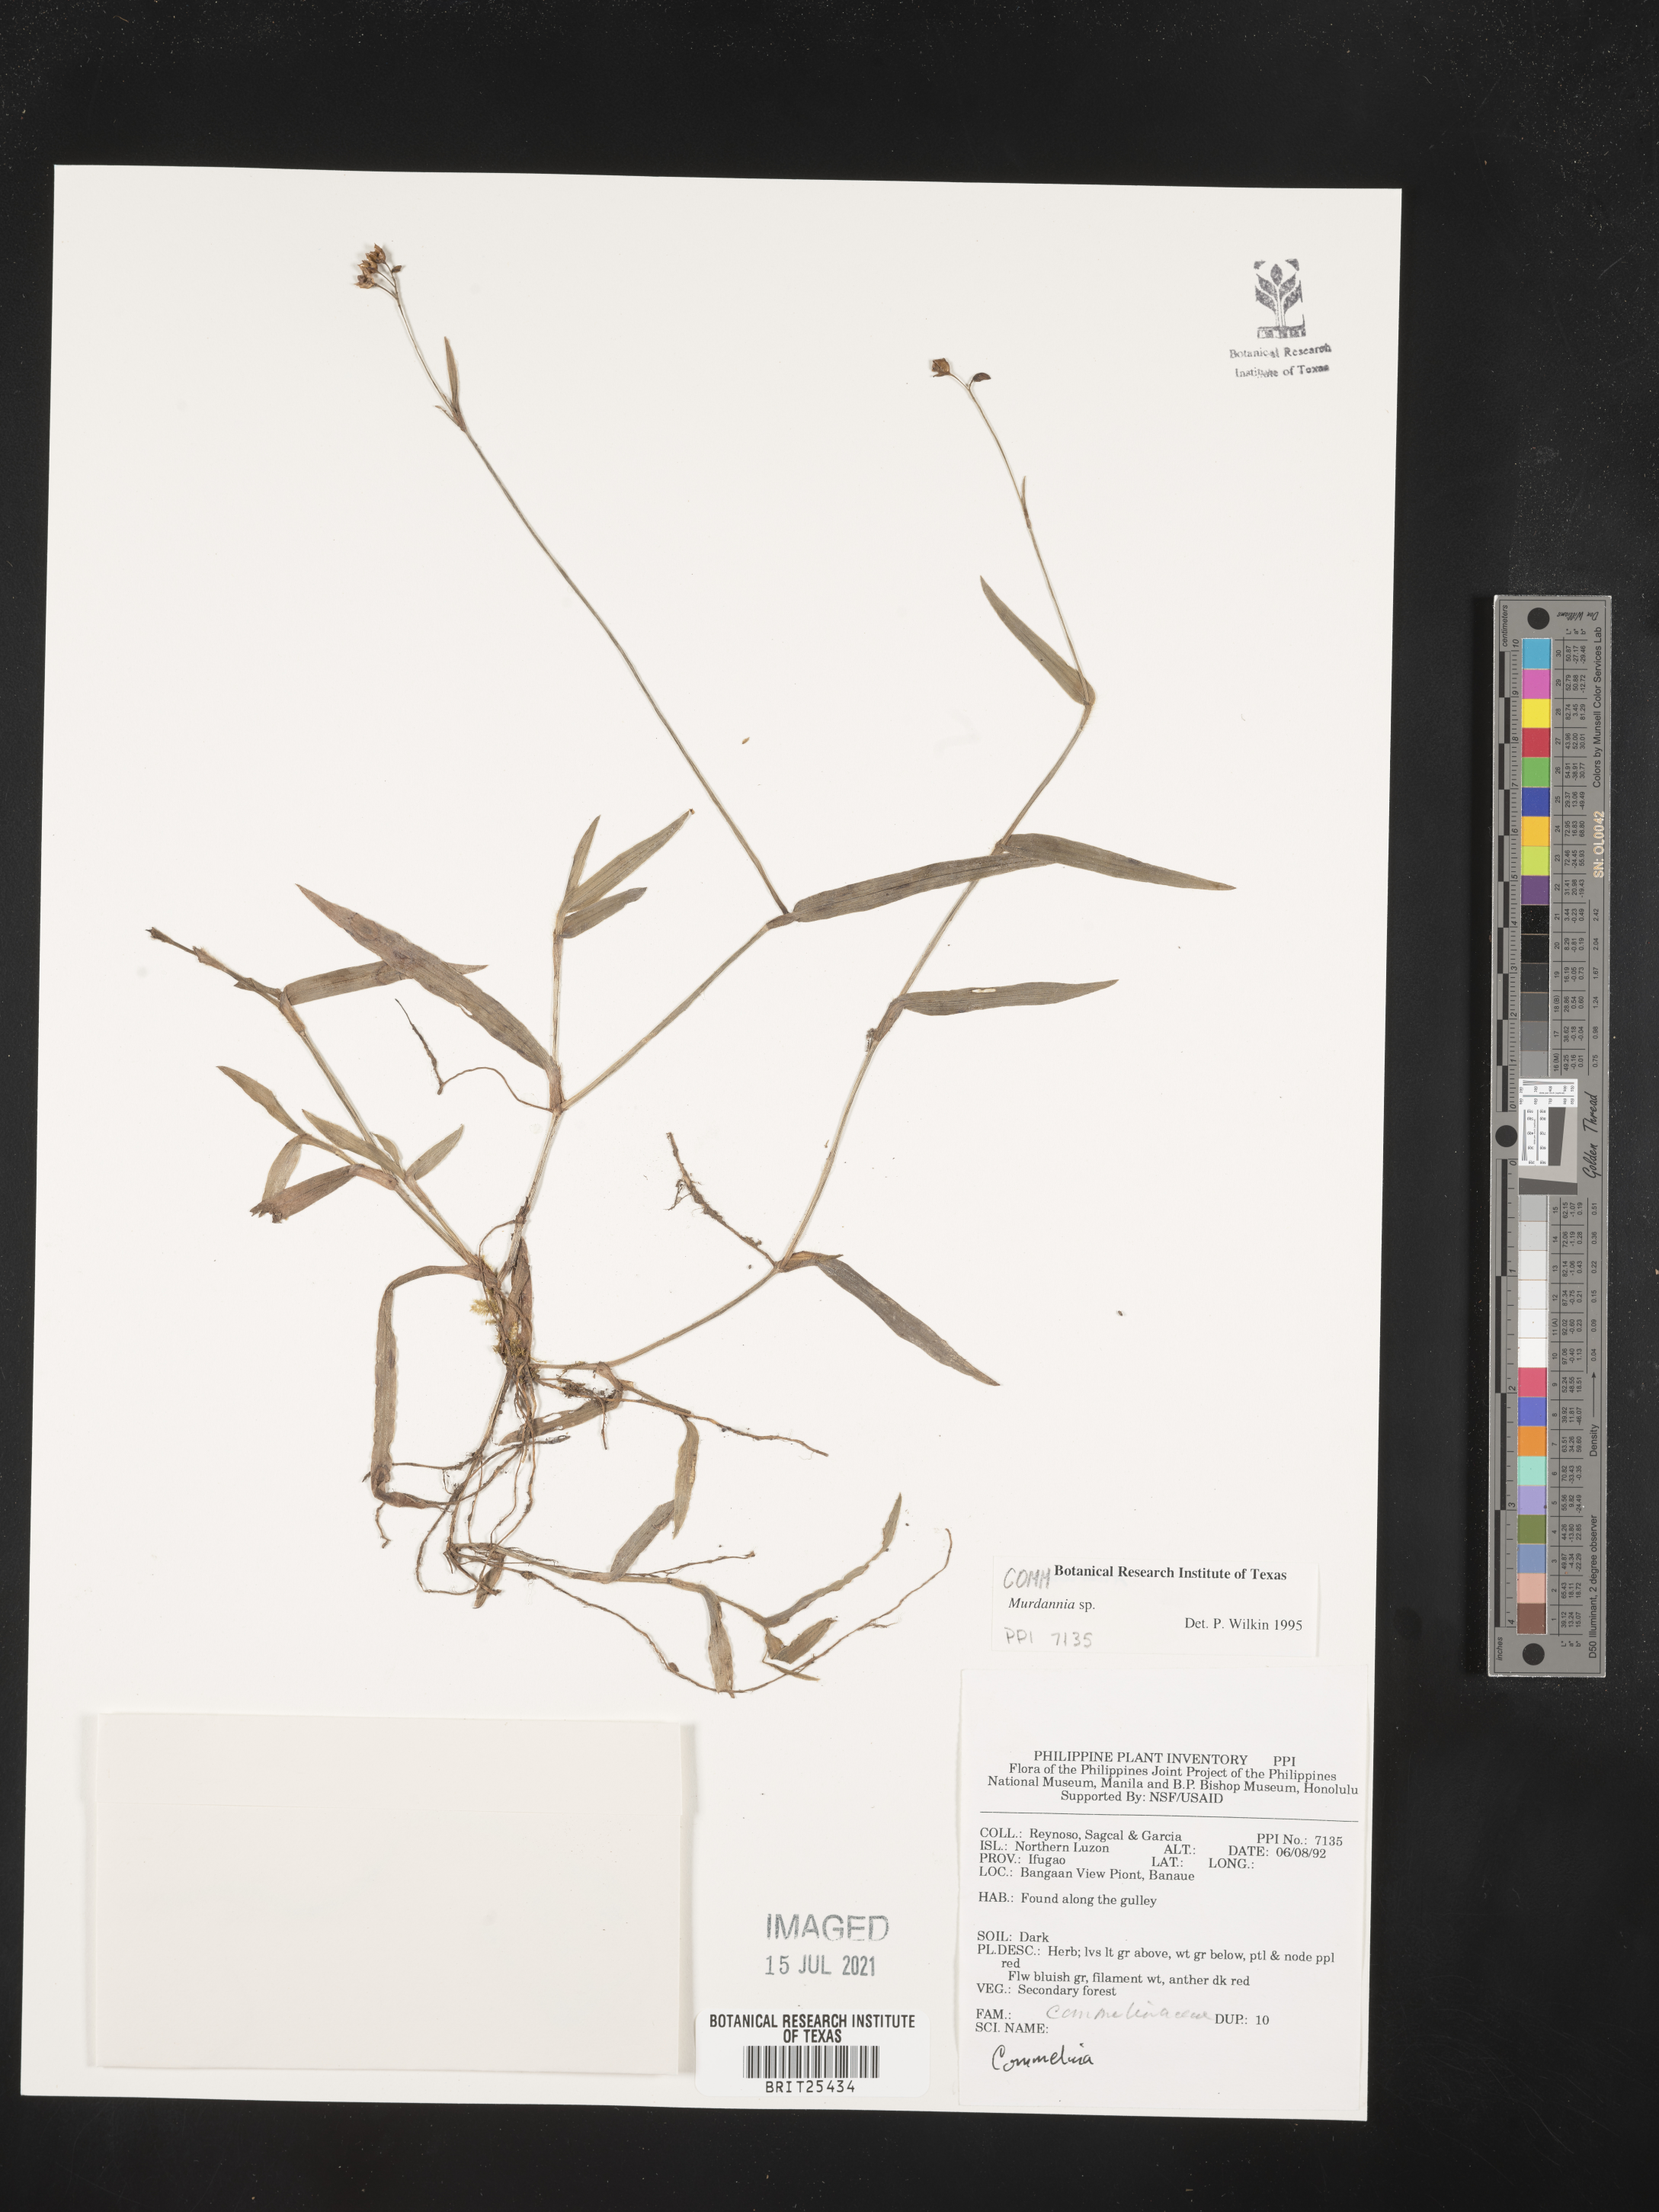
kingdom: Plantae
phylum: Tracheophyta
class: Liliopsida
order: Commelinales
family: Commelinaceae
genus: Murdannia
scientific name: Murdannia
